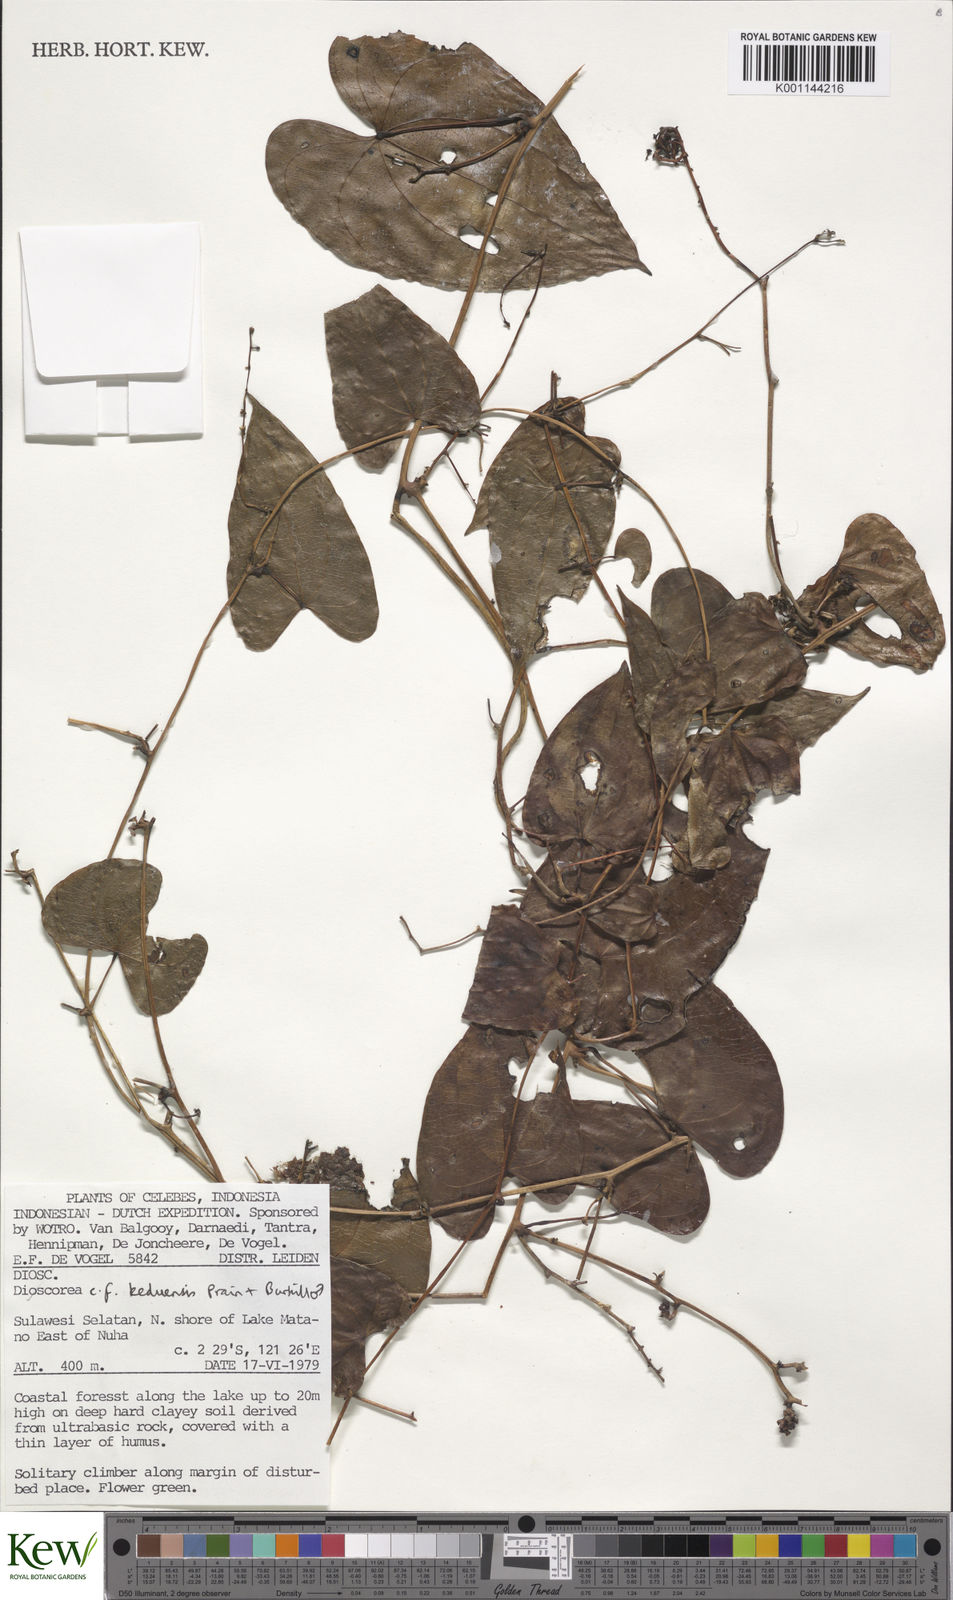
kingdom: Plantae
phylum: Tracheophyta
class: Liliopsida
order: Dioscoreales
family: Dioscoreaceae
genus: Dioscorea
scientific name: Dioscorea keduensis
